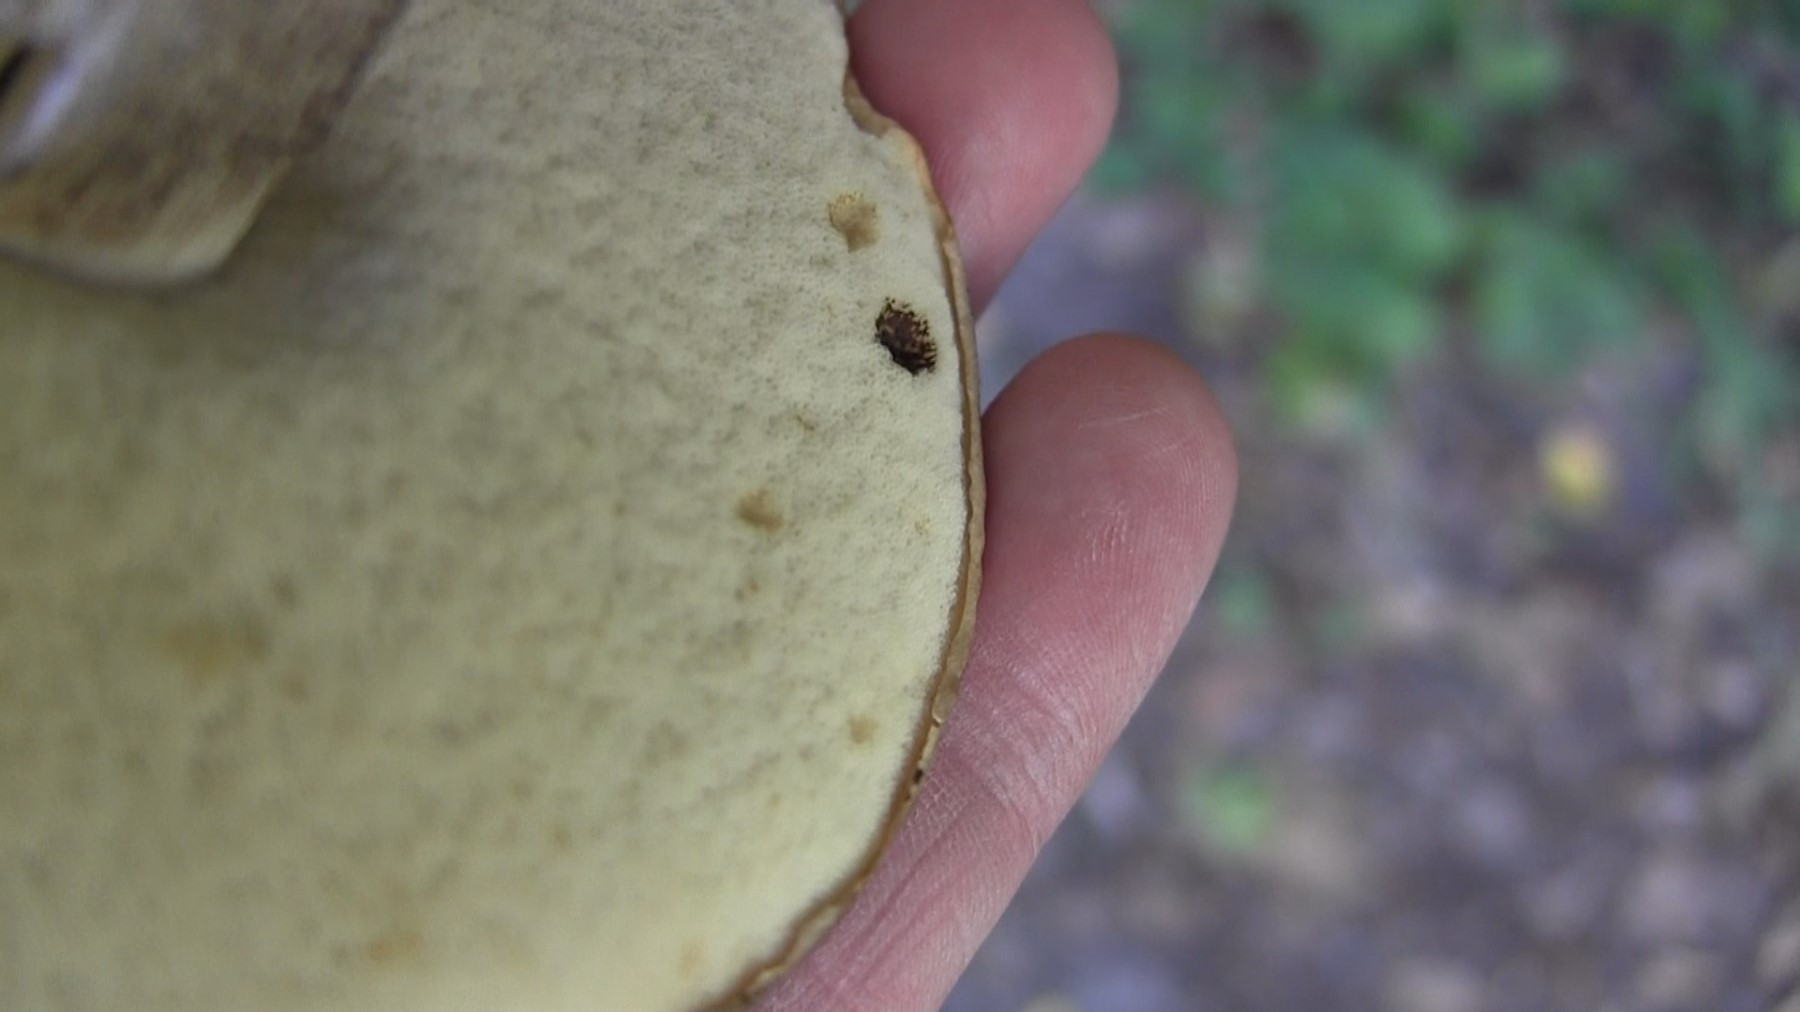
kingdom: Fungi
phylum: Basidiomycota
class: Agaricomycetes
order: Boletales
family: Boletaceae
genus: Leccinum
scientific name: Leccinum duriusculum
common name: poppel-skælrørhat
